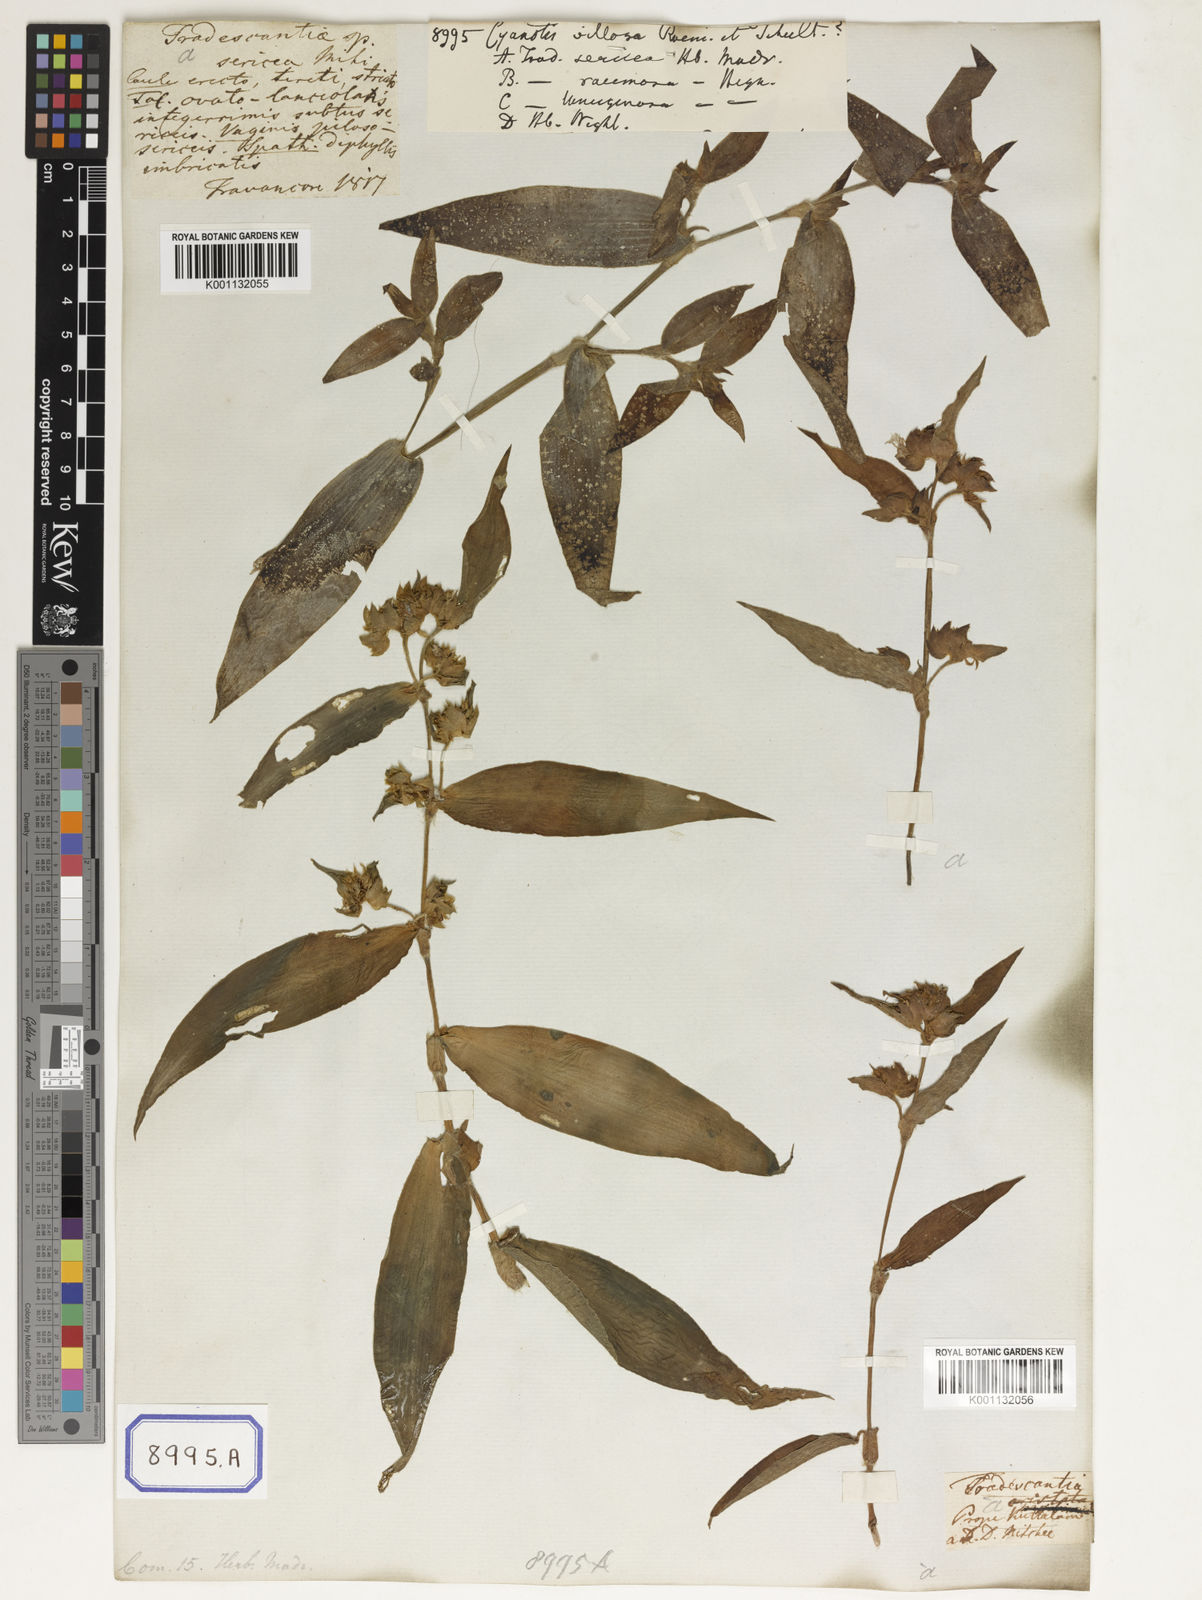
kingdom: Plantae
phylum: Tracheophyta
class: Liliopsida
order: Commelinales
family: Commelinaceae
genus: Cyanotis
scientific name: Cyanotis villosa
